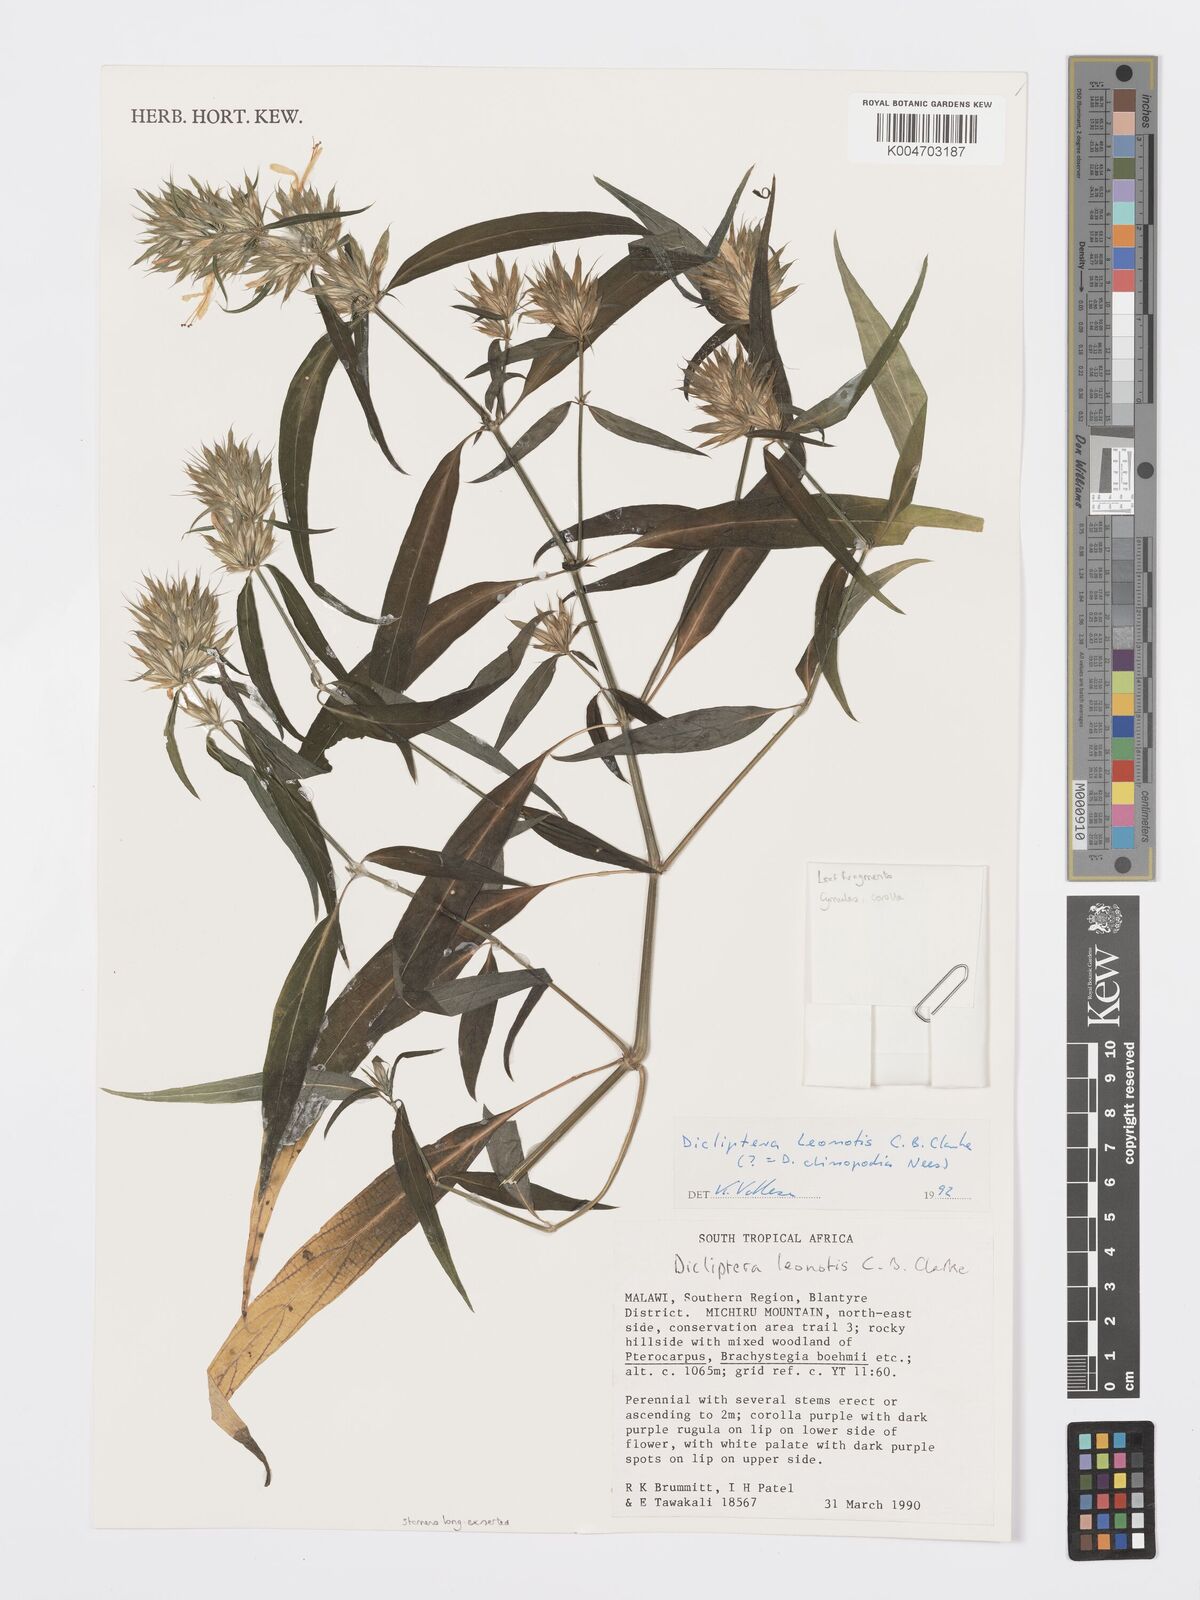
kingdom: Plantae
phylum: Tracheophyta
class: Magnoliopsida
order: Lamiales
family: Acanthaceae
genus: Dicliptera
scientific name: Dicliptera clinopodia
